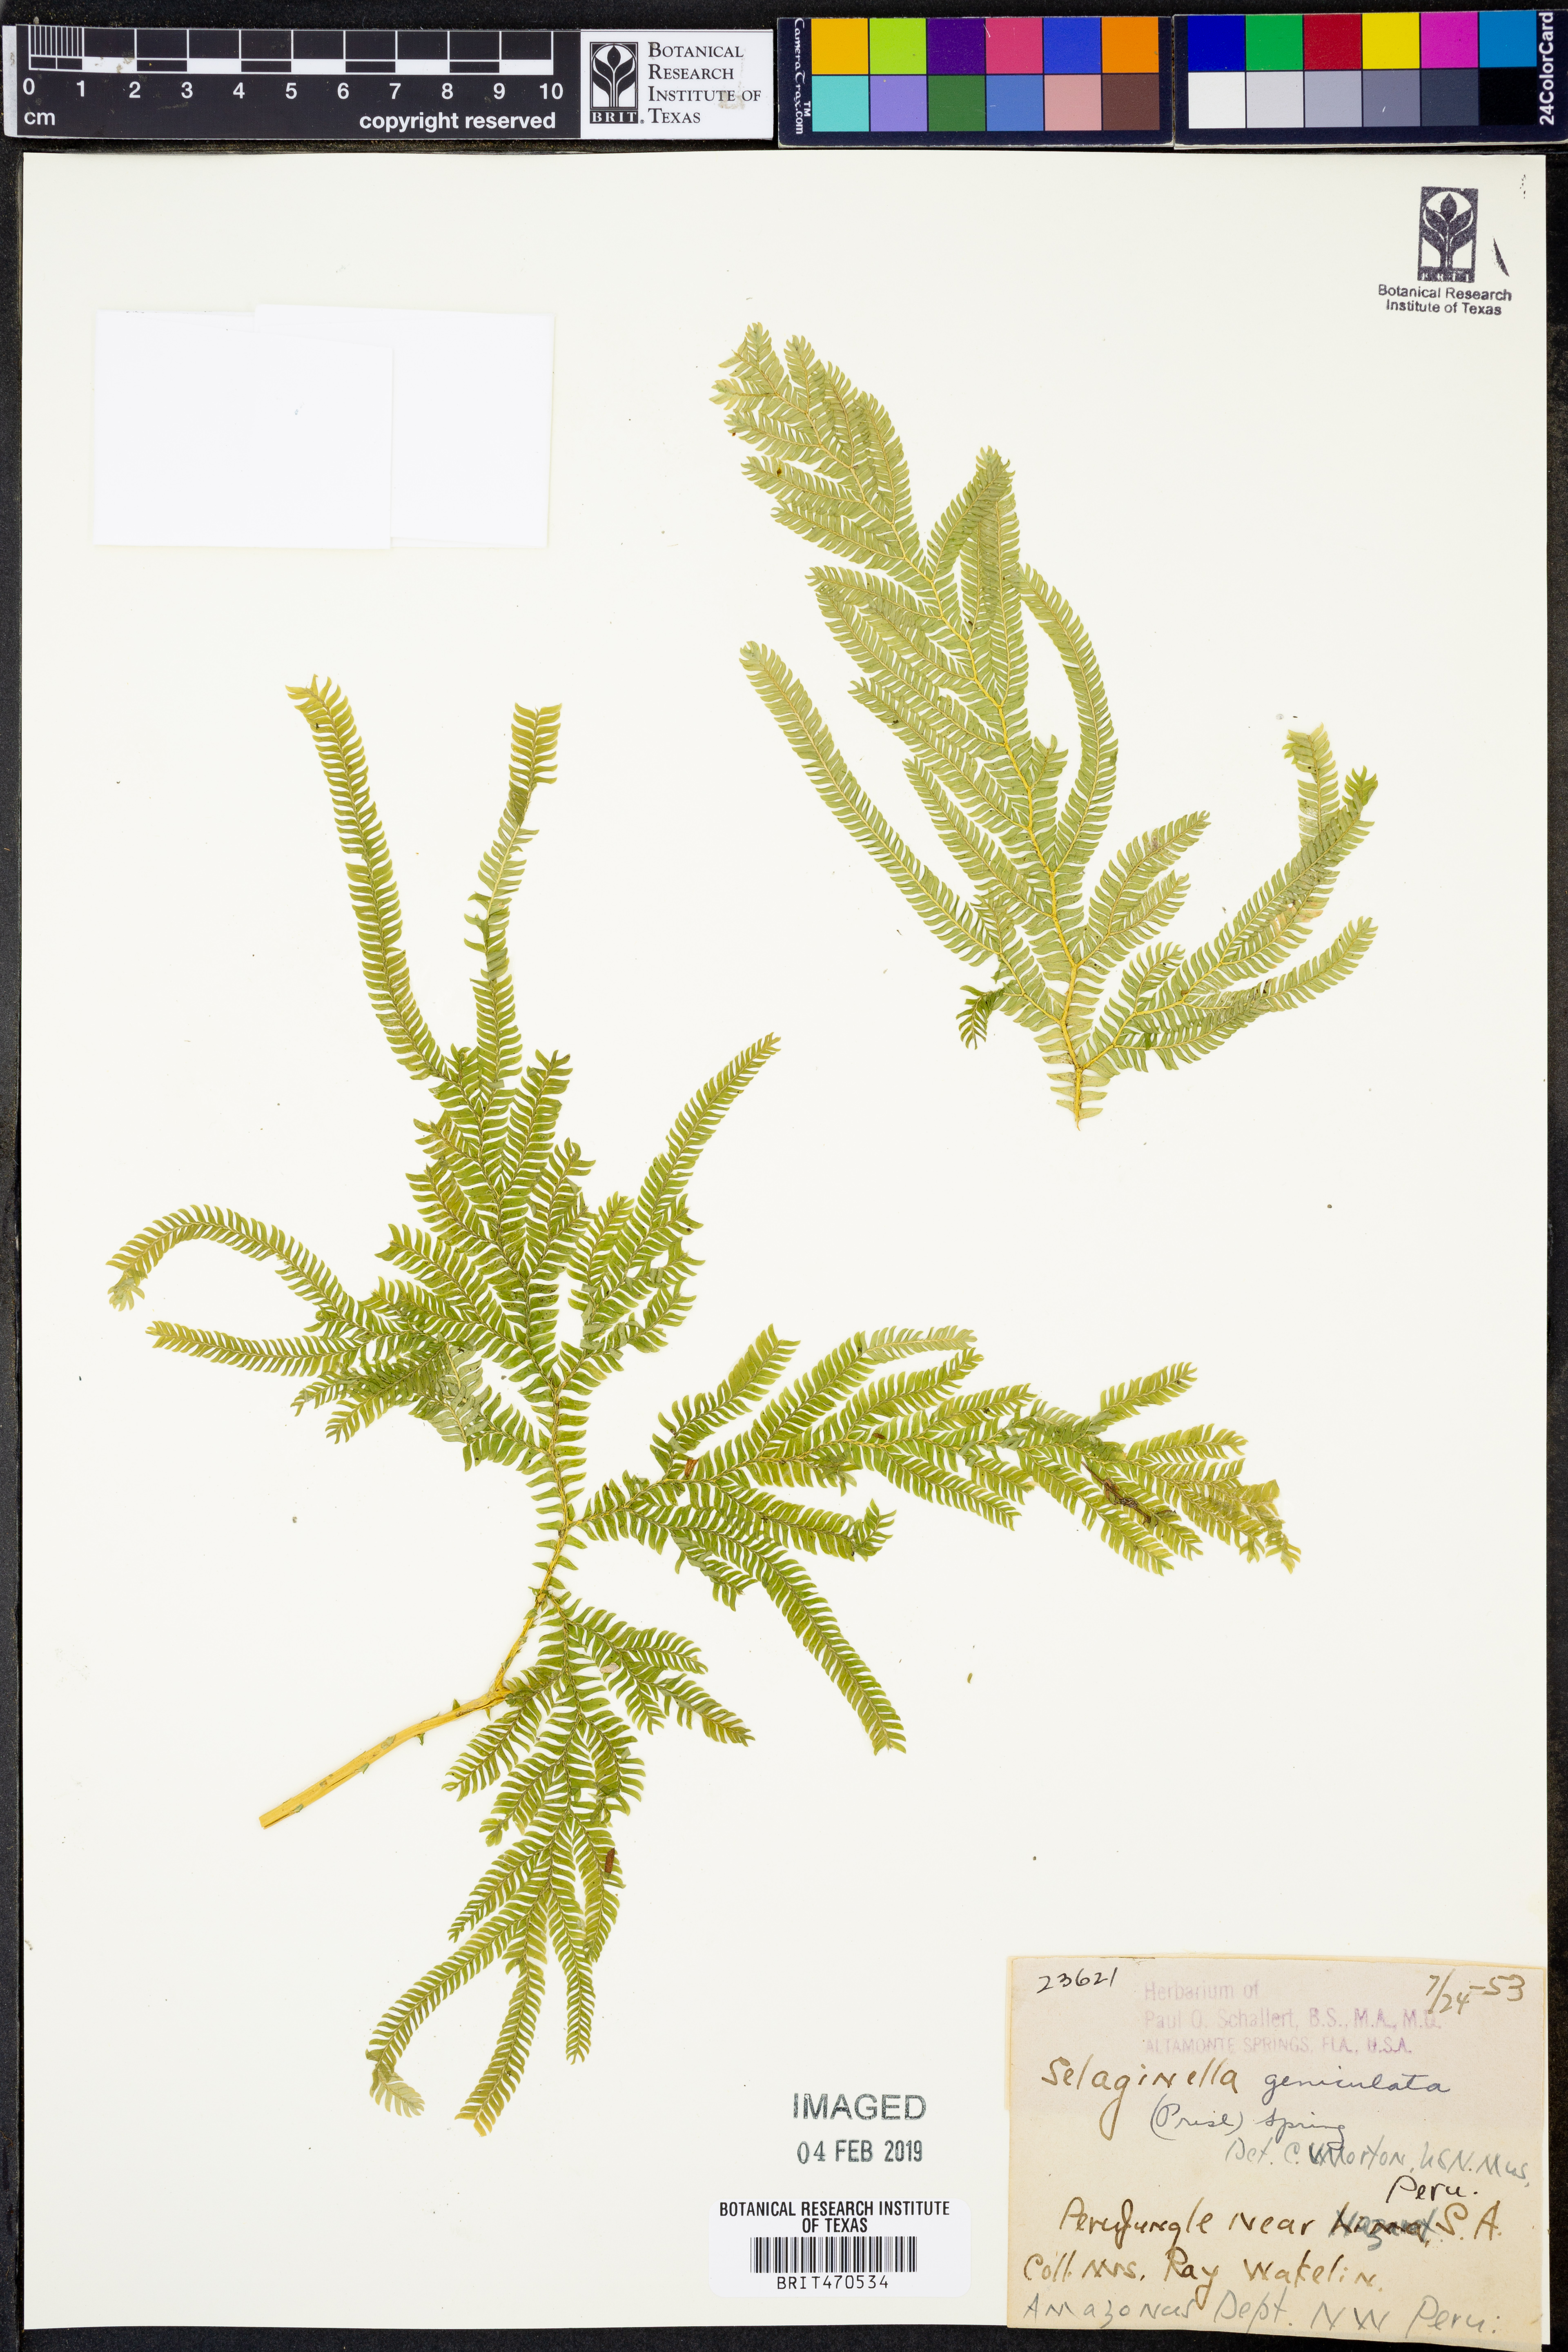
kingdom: Plantae
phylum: Tracheophyta
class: Lycopodiopsida
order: Selaginellales
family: Selaginellaceae
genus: Selaginella
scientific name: Selaginella parkeri
